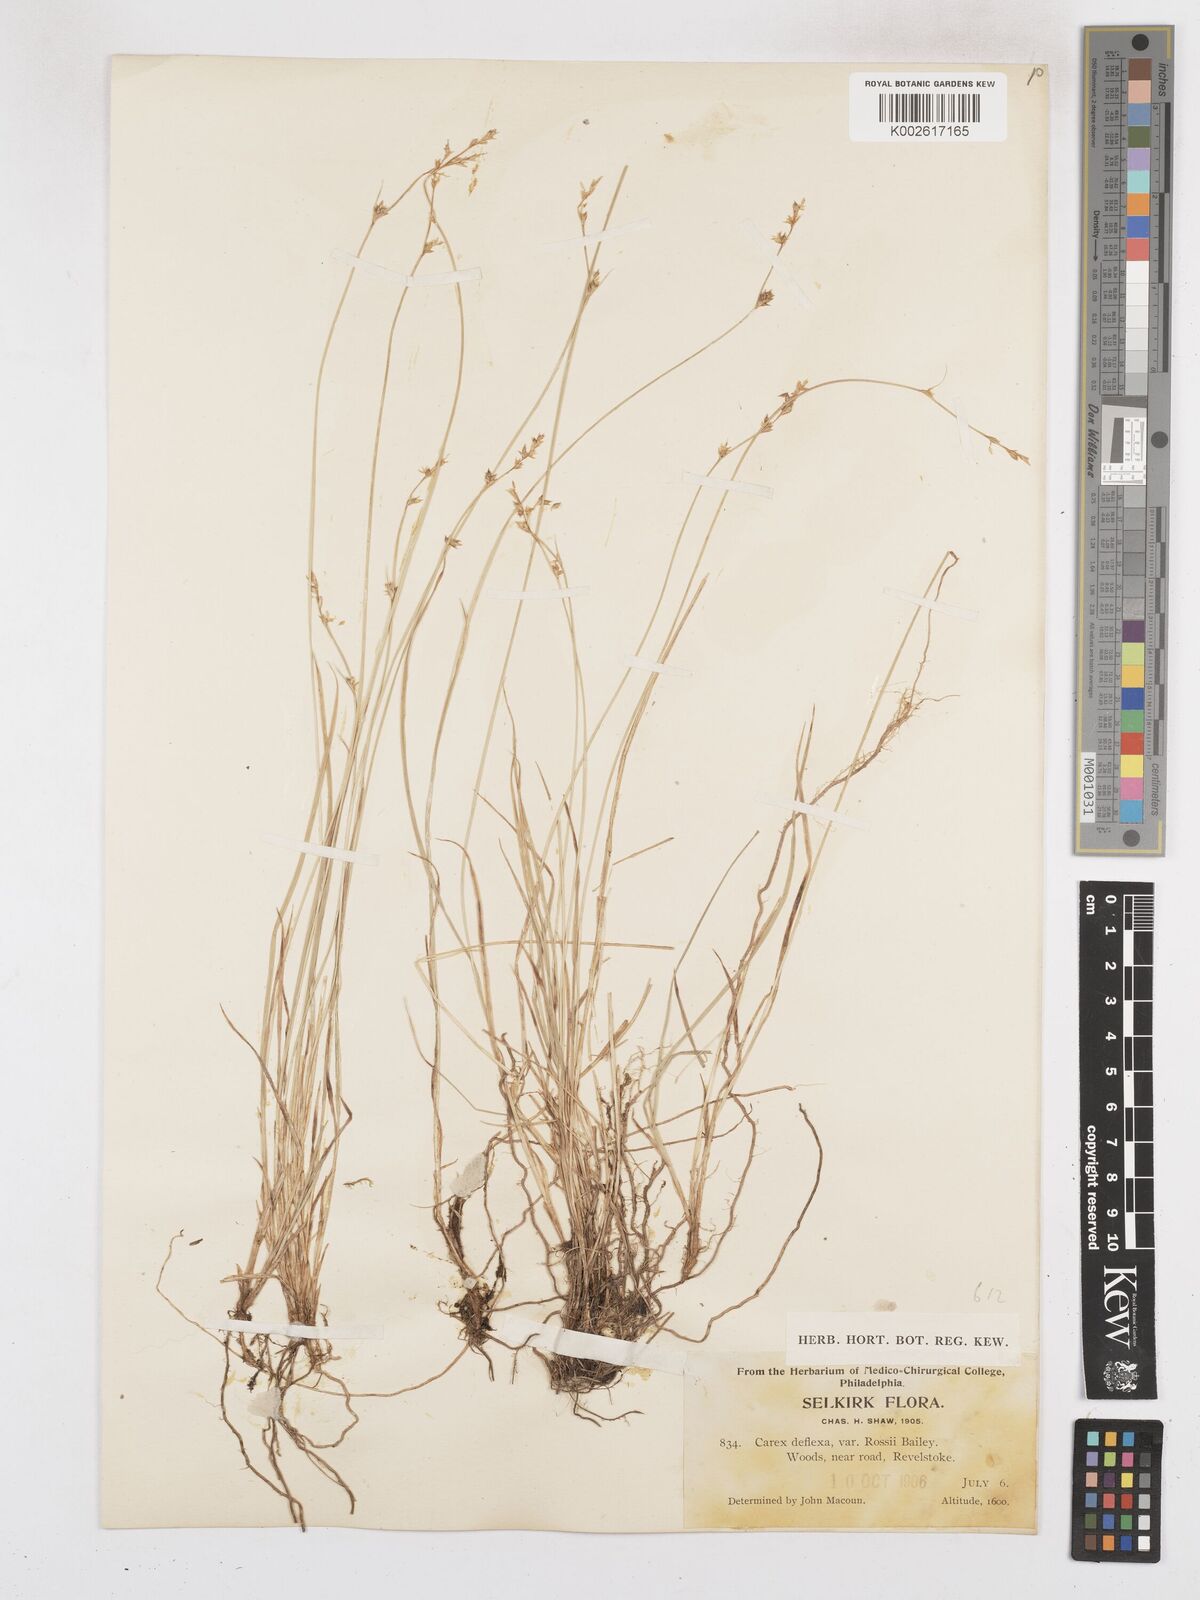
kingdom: Plantae
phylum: Tracheophyta
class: Liliopsida
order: Poales
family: Cyperaceae
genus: Carex
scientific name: Carex novae-angliae
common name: New england sedge
